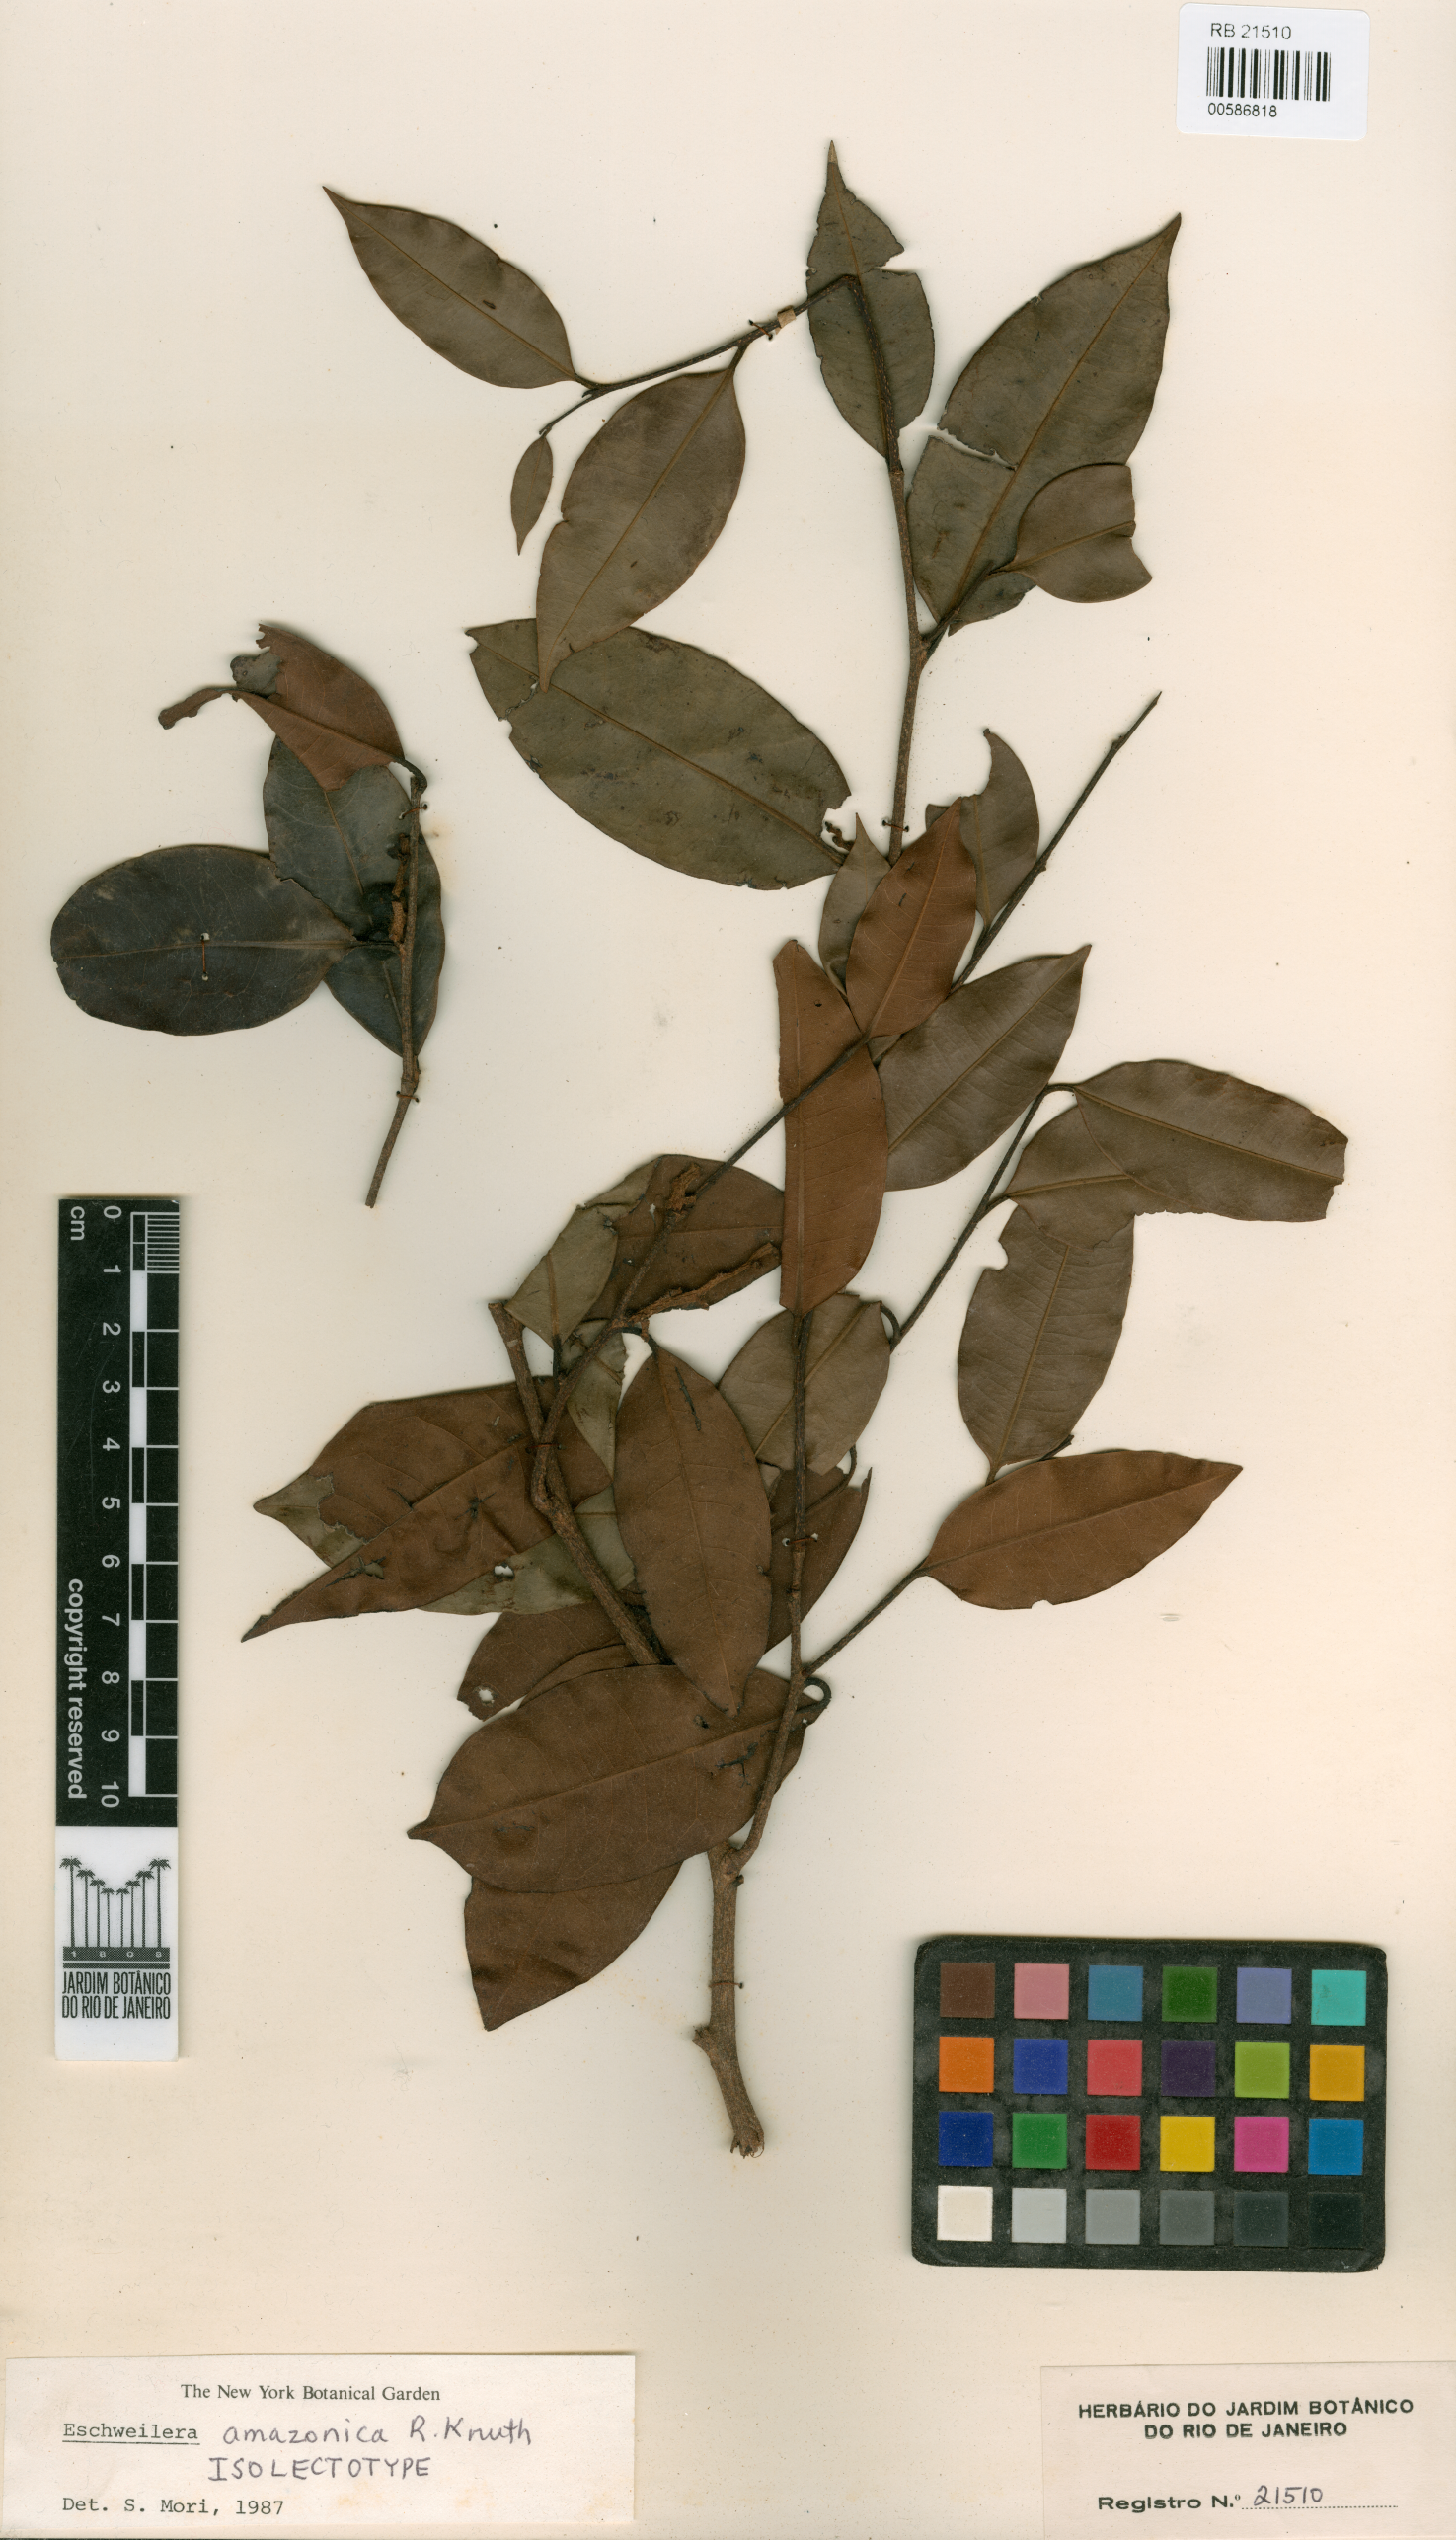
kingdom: Plantae
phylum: Tracheophyta
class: Magnoliopsida
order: Ericales
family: Lecythidaceae
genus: Eschweilera
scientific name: Eschweilera amazonica
